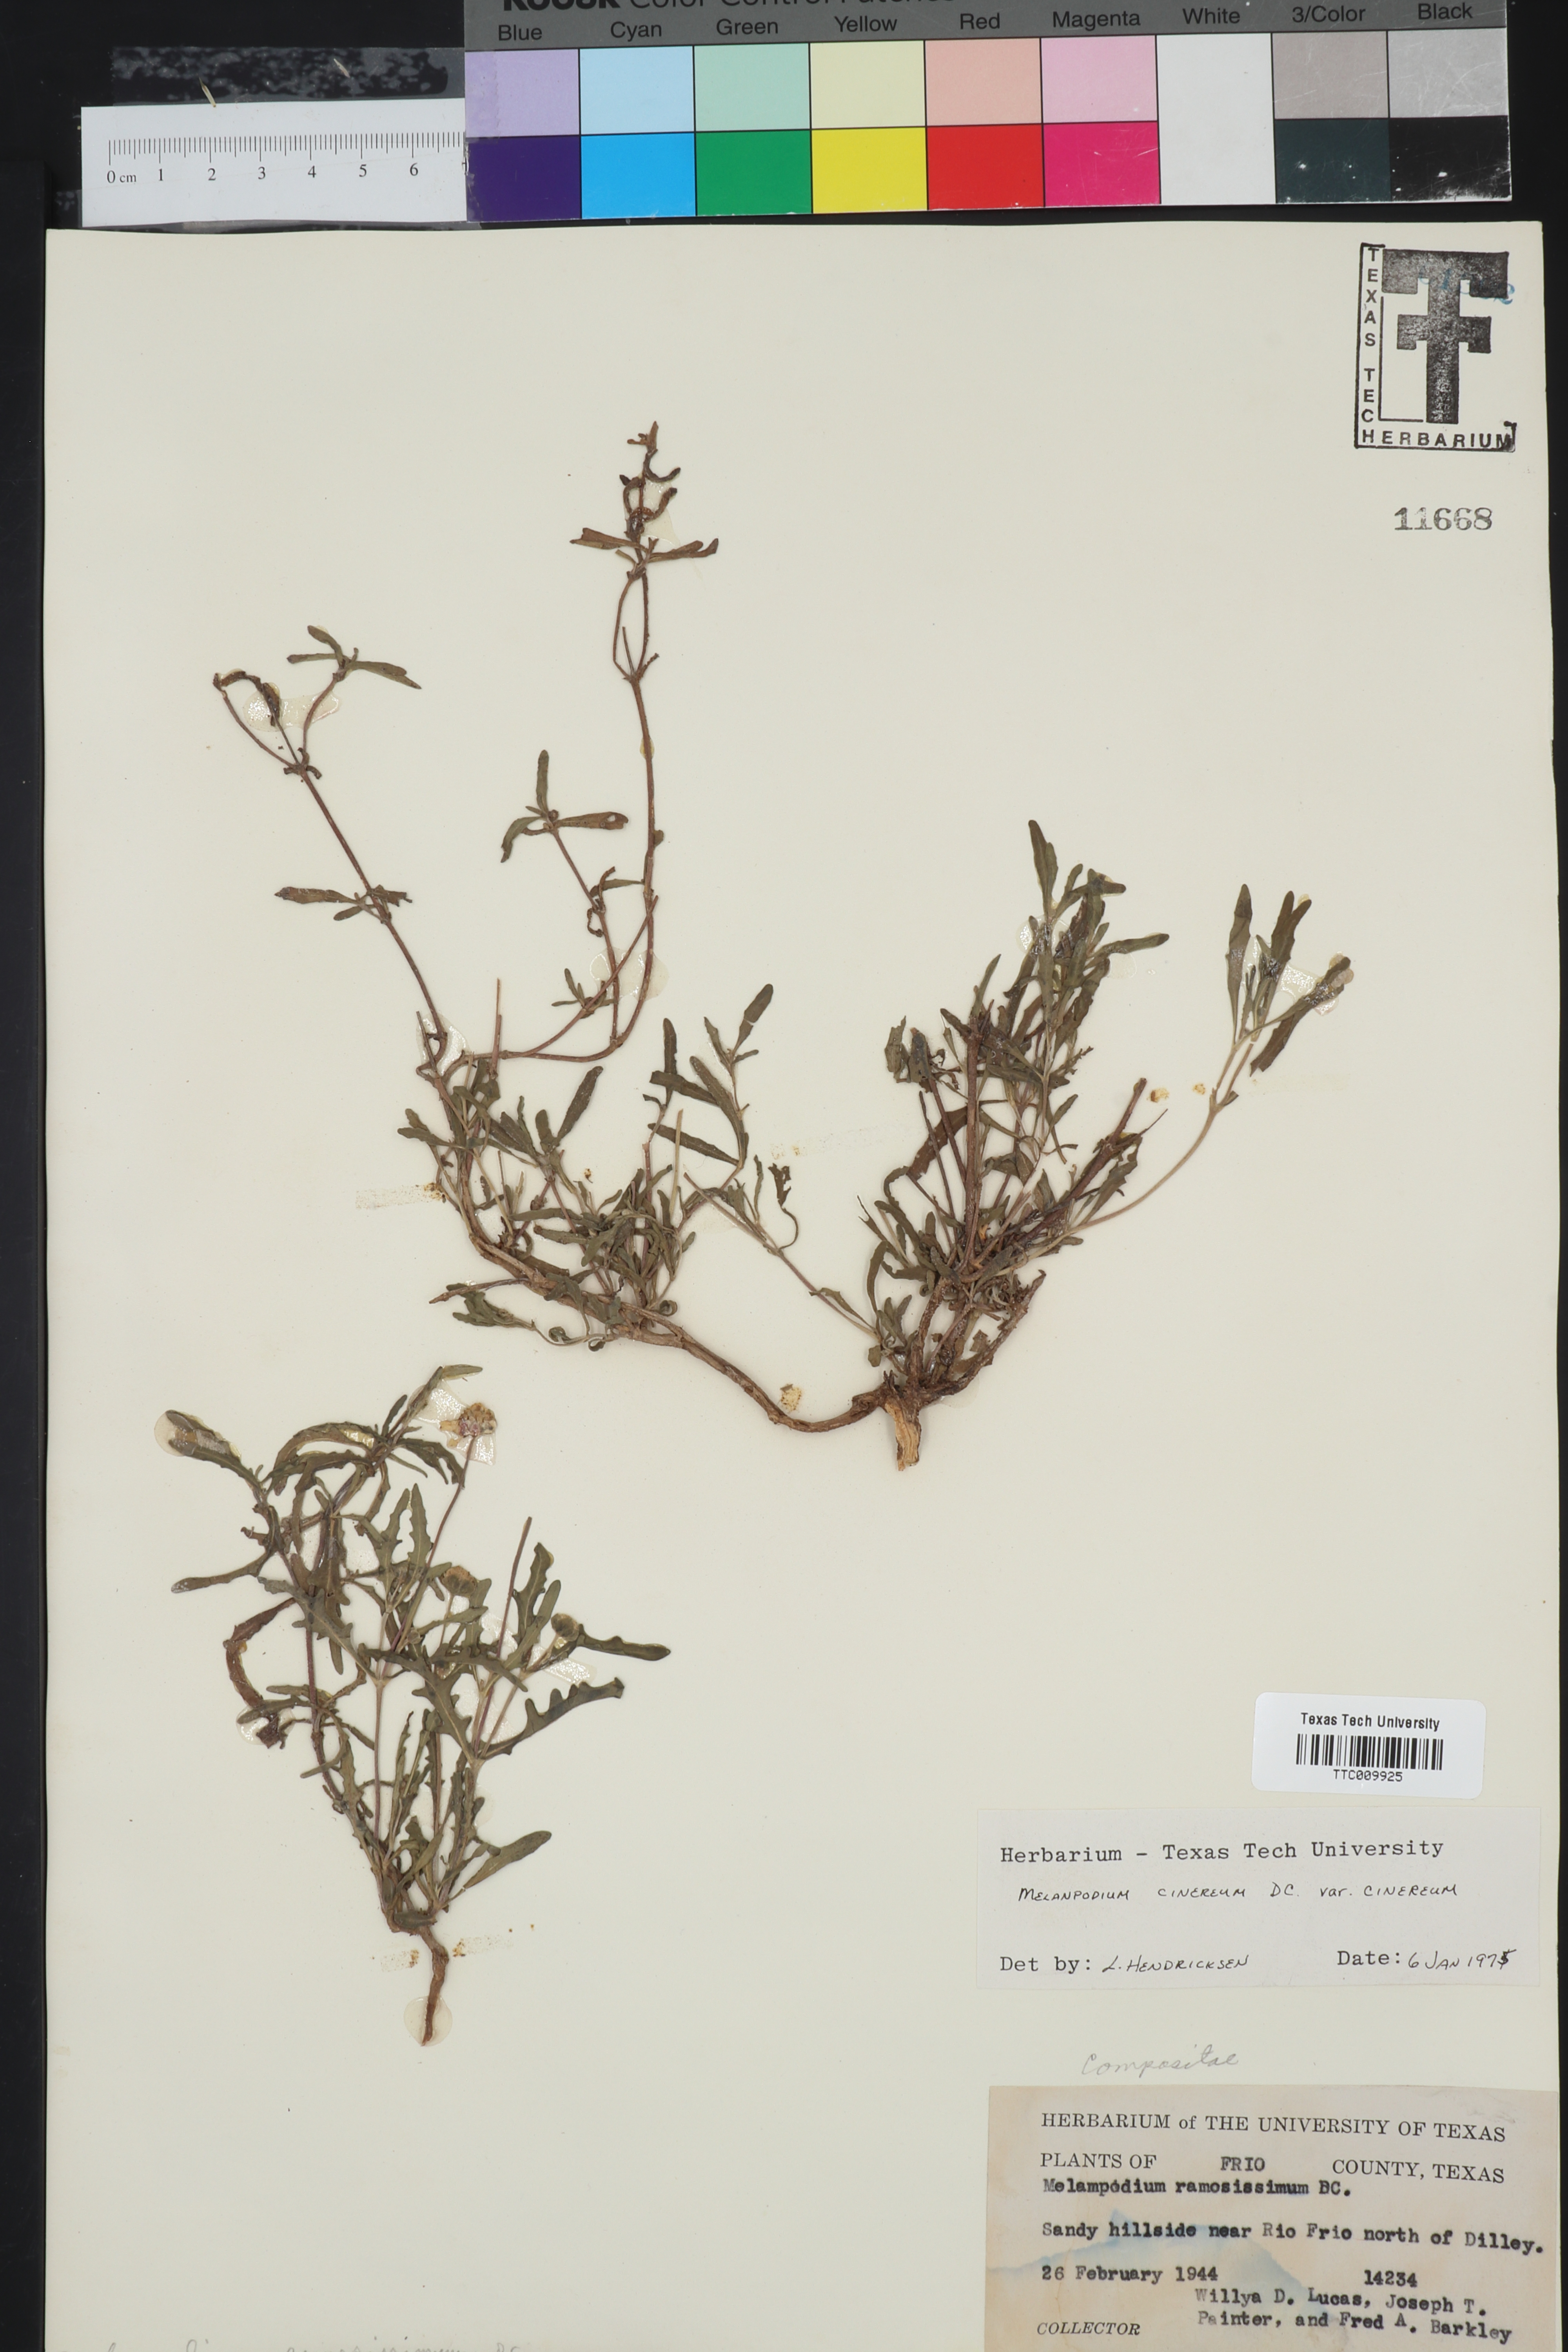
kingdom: Plantae
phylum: Tracheophyta
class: Magnoliopsida
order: Asterales
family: Asteraceae
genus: Melampodium
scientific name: Melampodium cinereum
